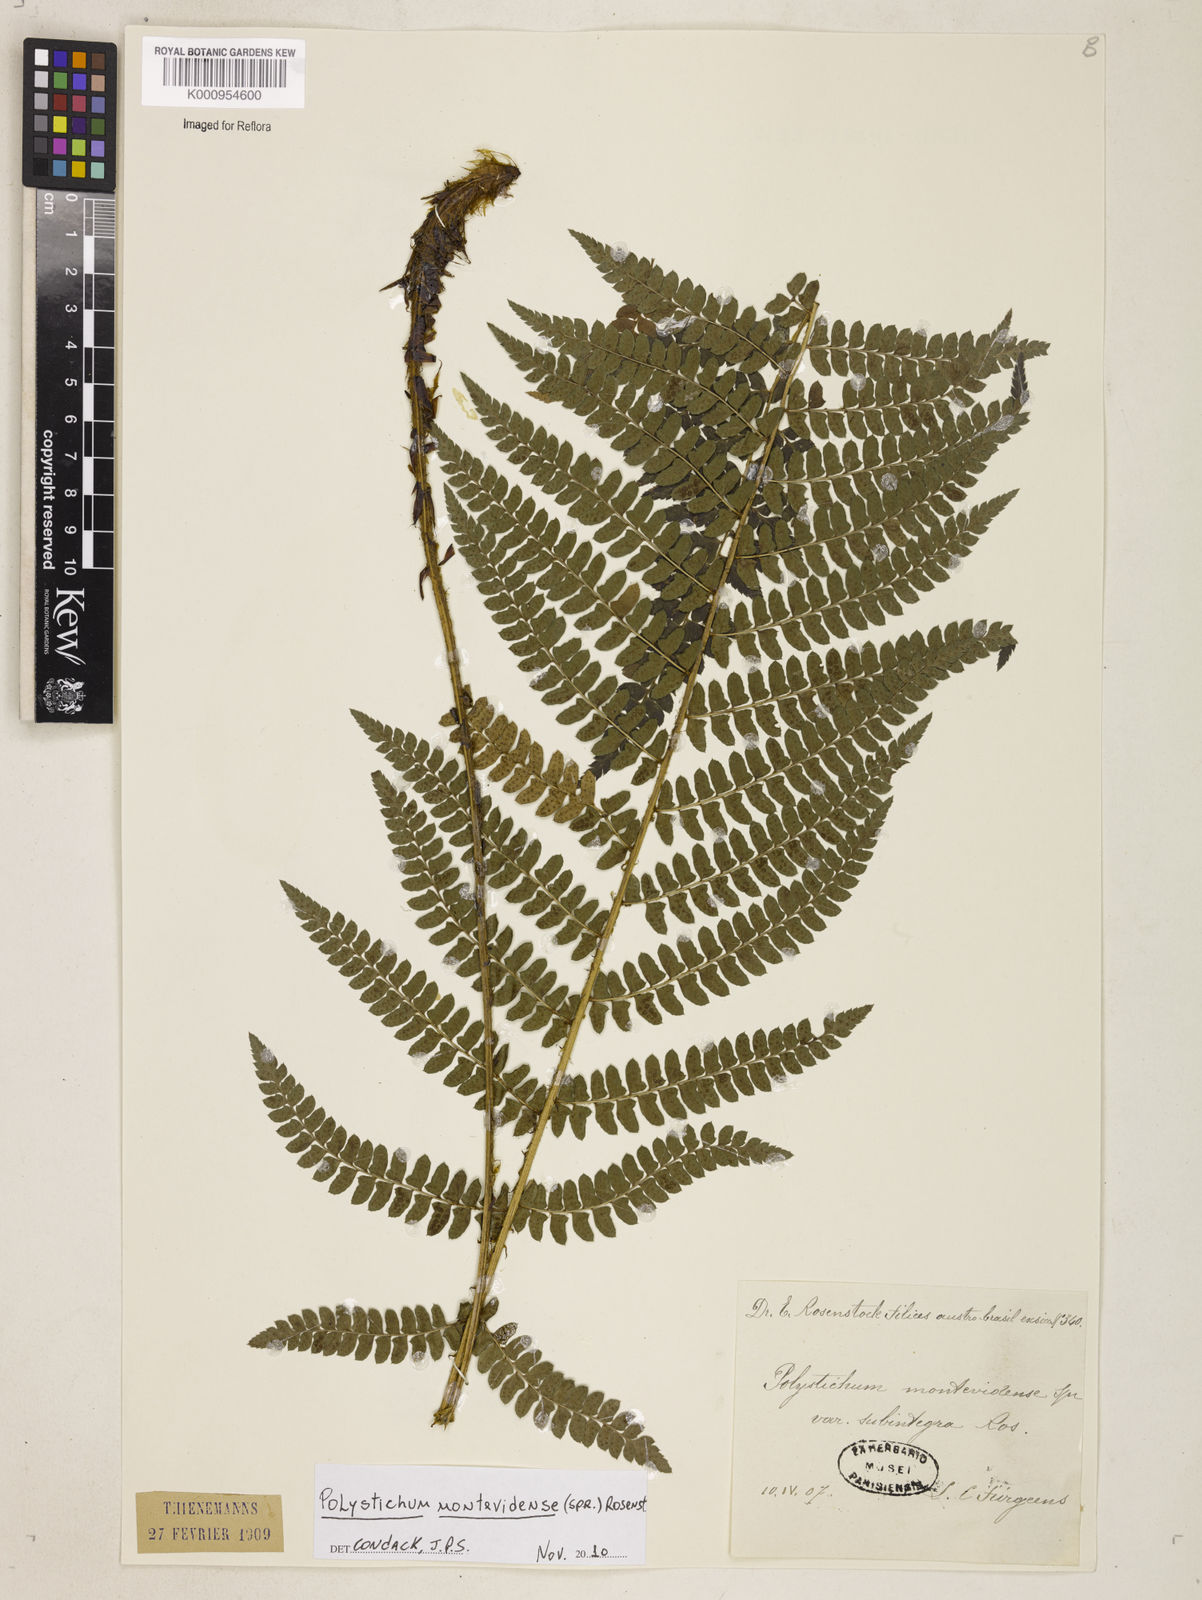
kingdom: Plantae
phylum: Tracheophyta
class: Polypodiopsida
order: Polypodiales
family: Dryopteridaceae
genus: Polystichum
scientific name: Polystichum montevidense
